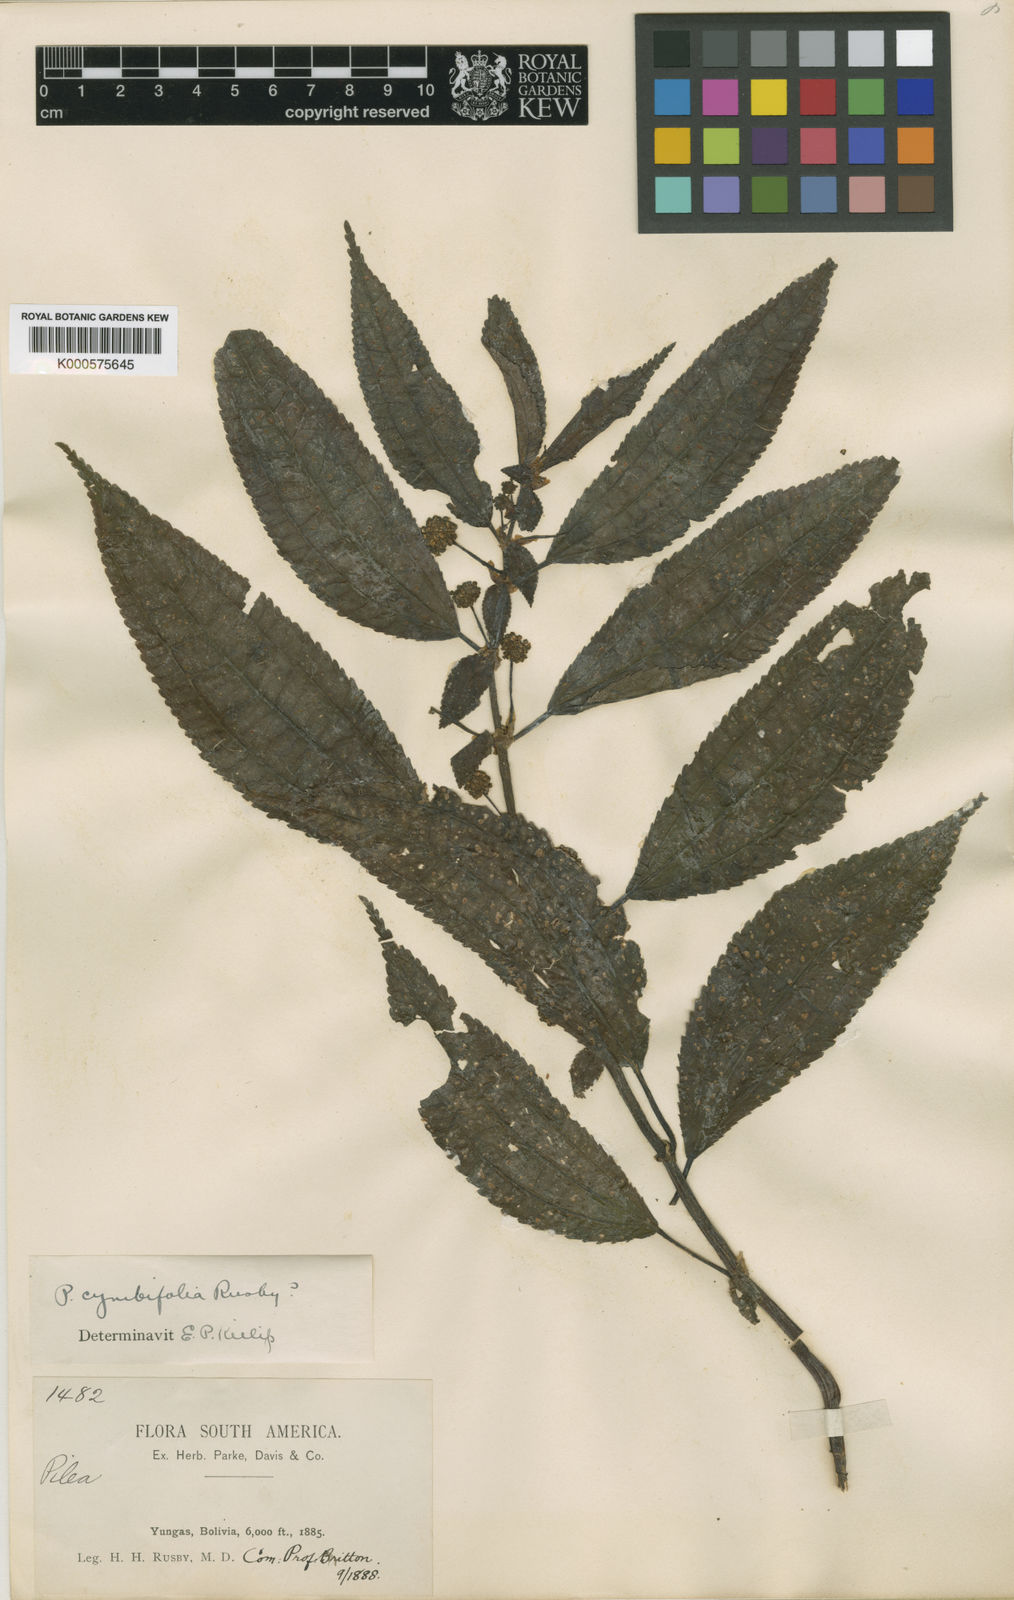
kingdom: Plantae
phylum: Tracheophyta
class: Magnoliopsida
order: Rosales
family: Urticaceae
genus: Pilea
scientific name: Pilea cymbifolia
